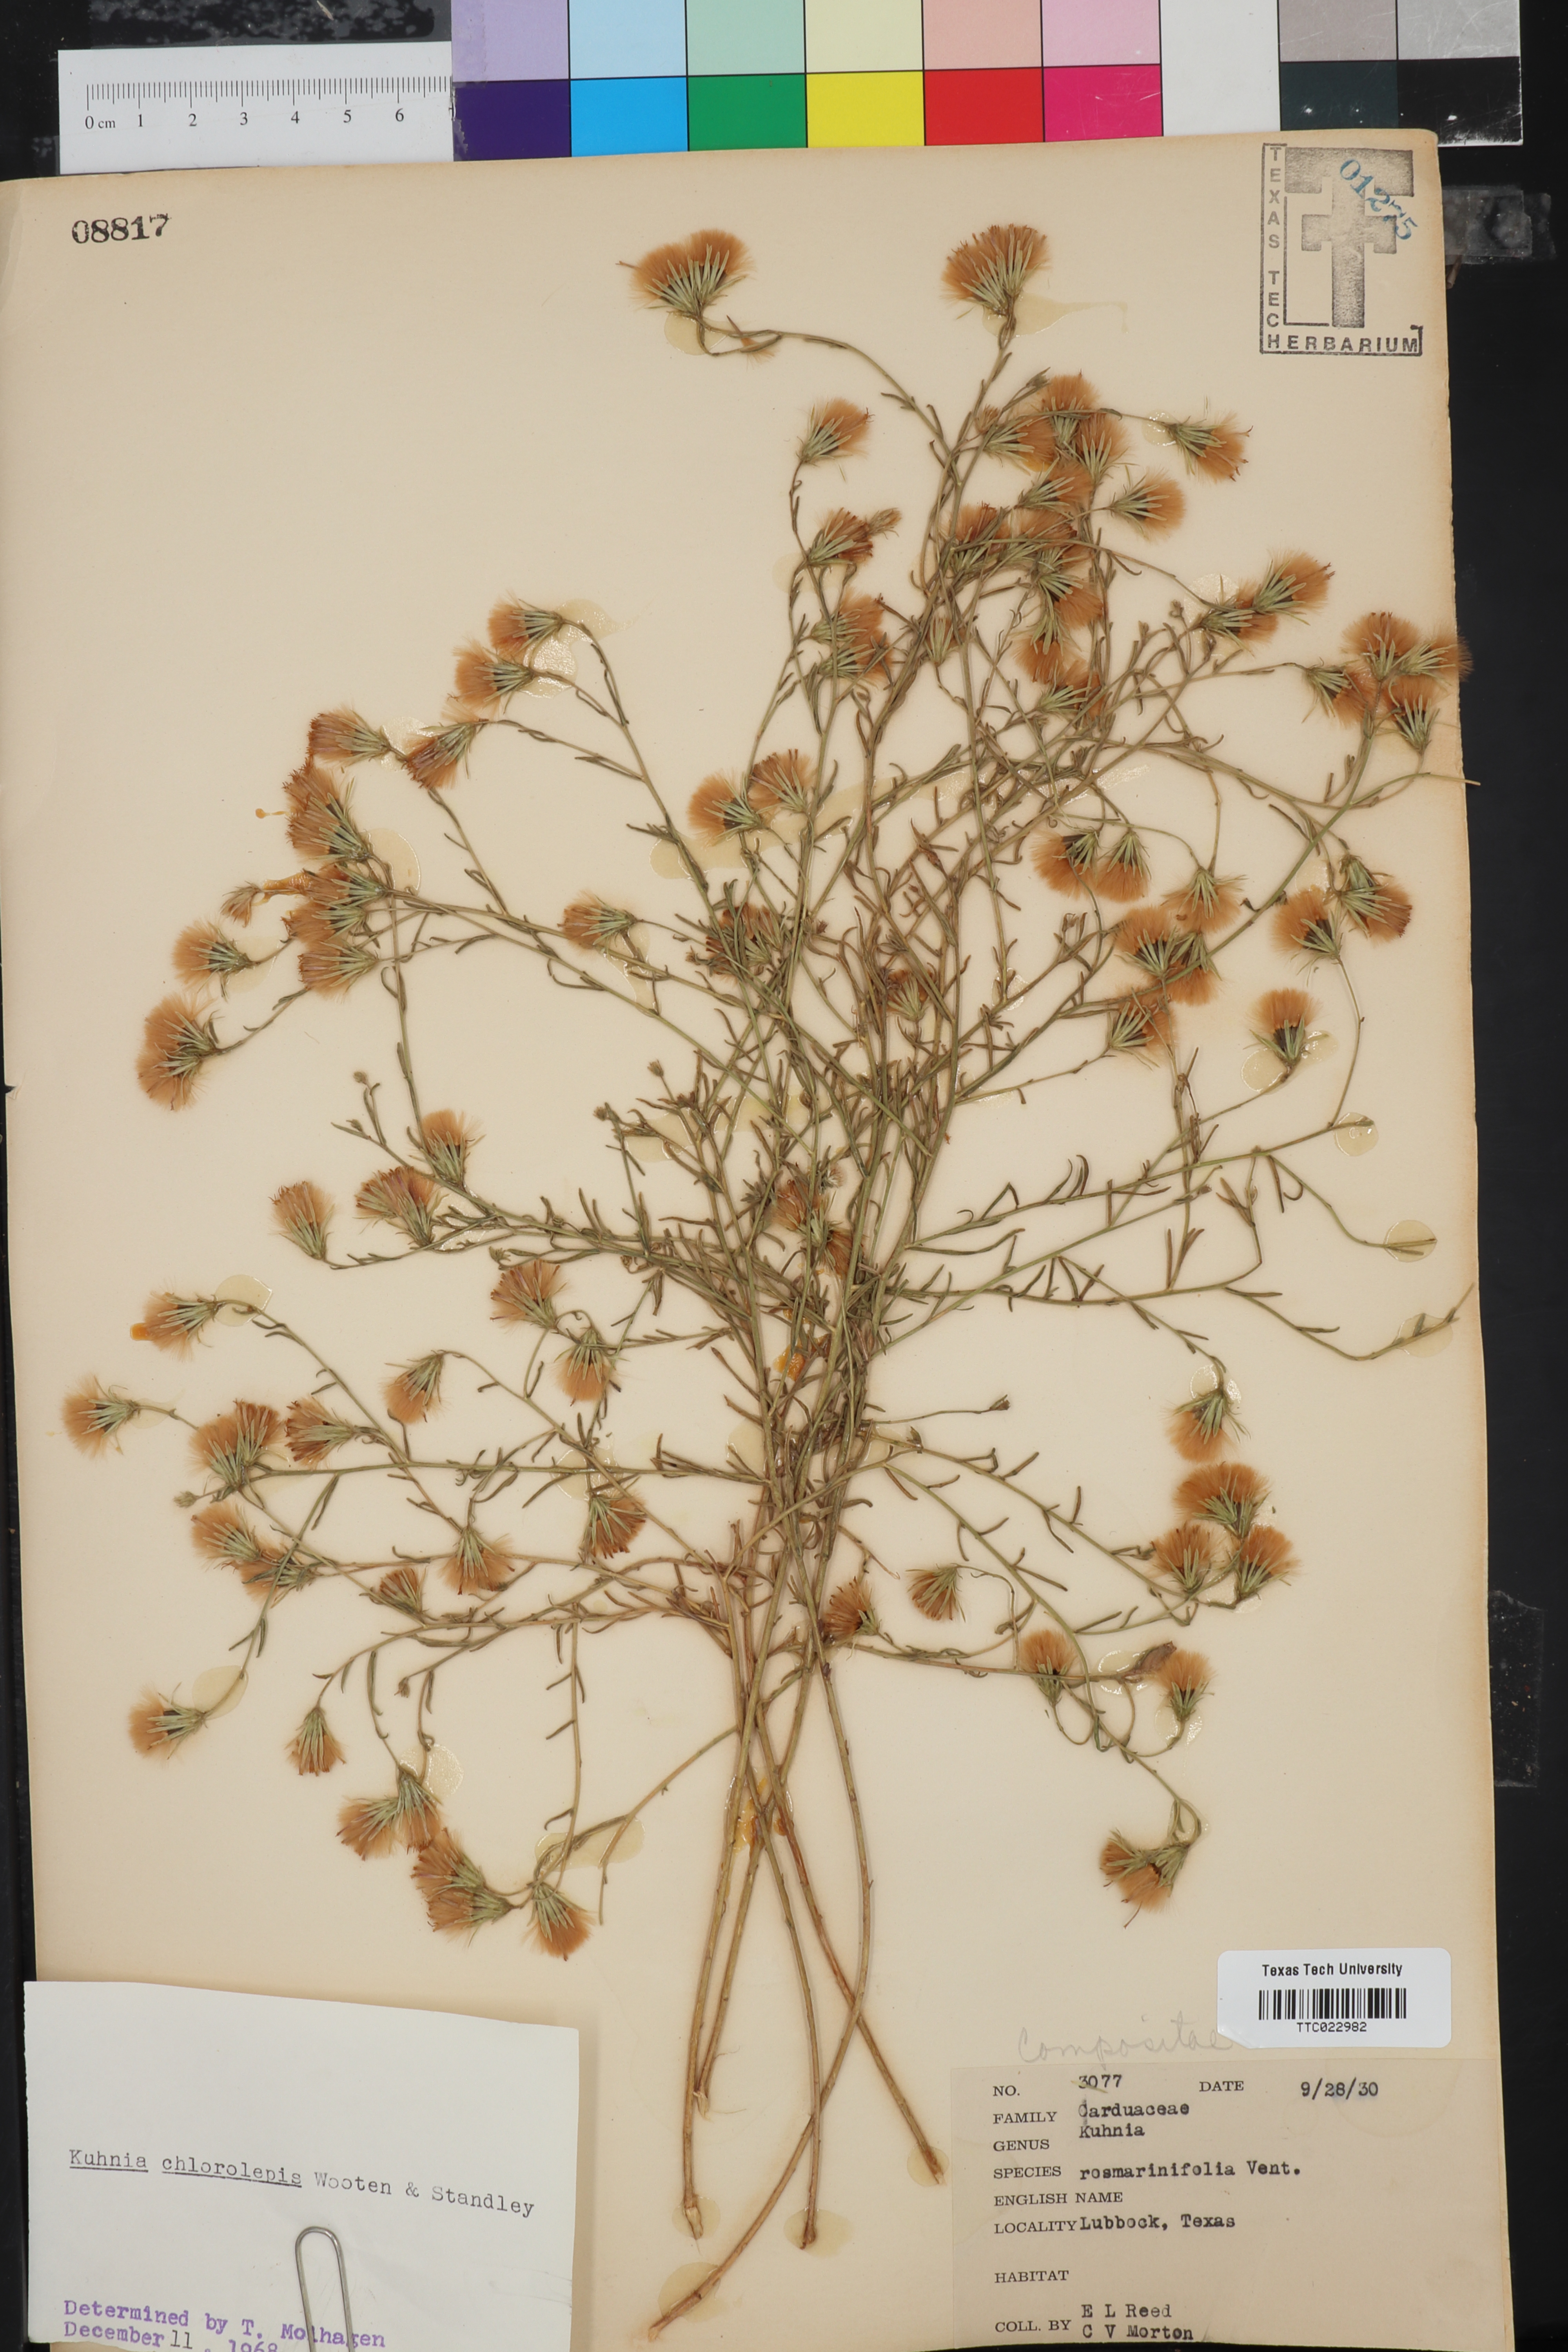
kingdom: Plantae
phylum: Tracheophyta
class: Magnoliopsida
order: Asterales
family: Asteraceae
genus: Brickellia
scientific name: Brickellia leptophylla
